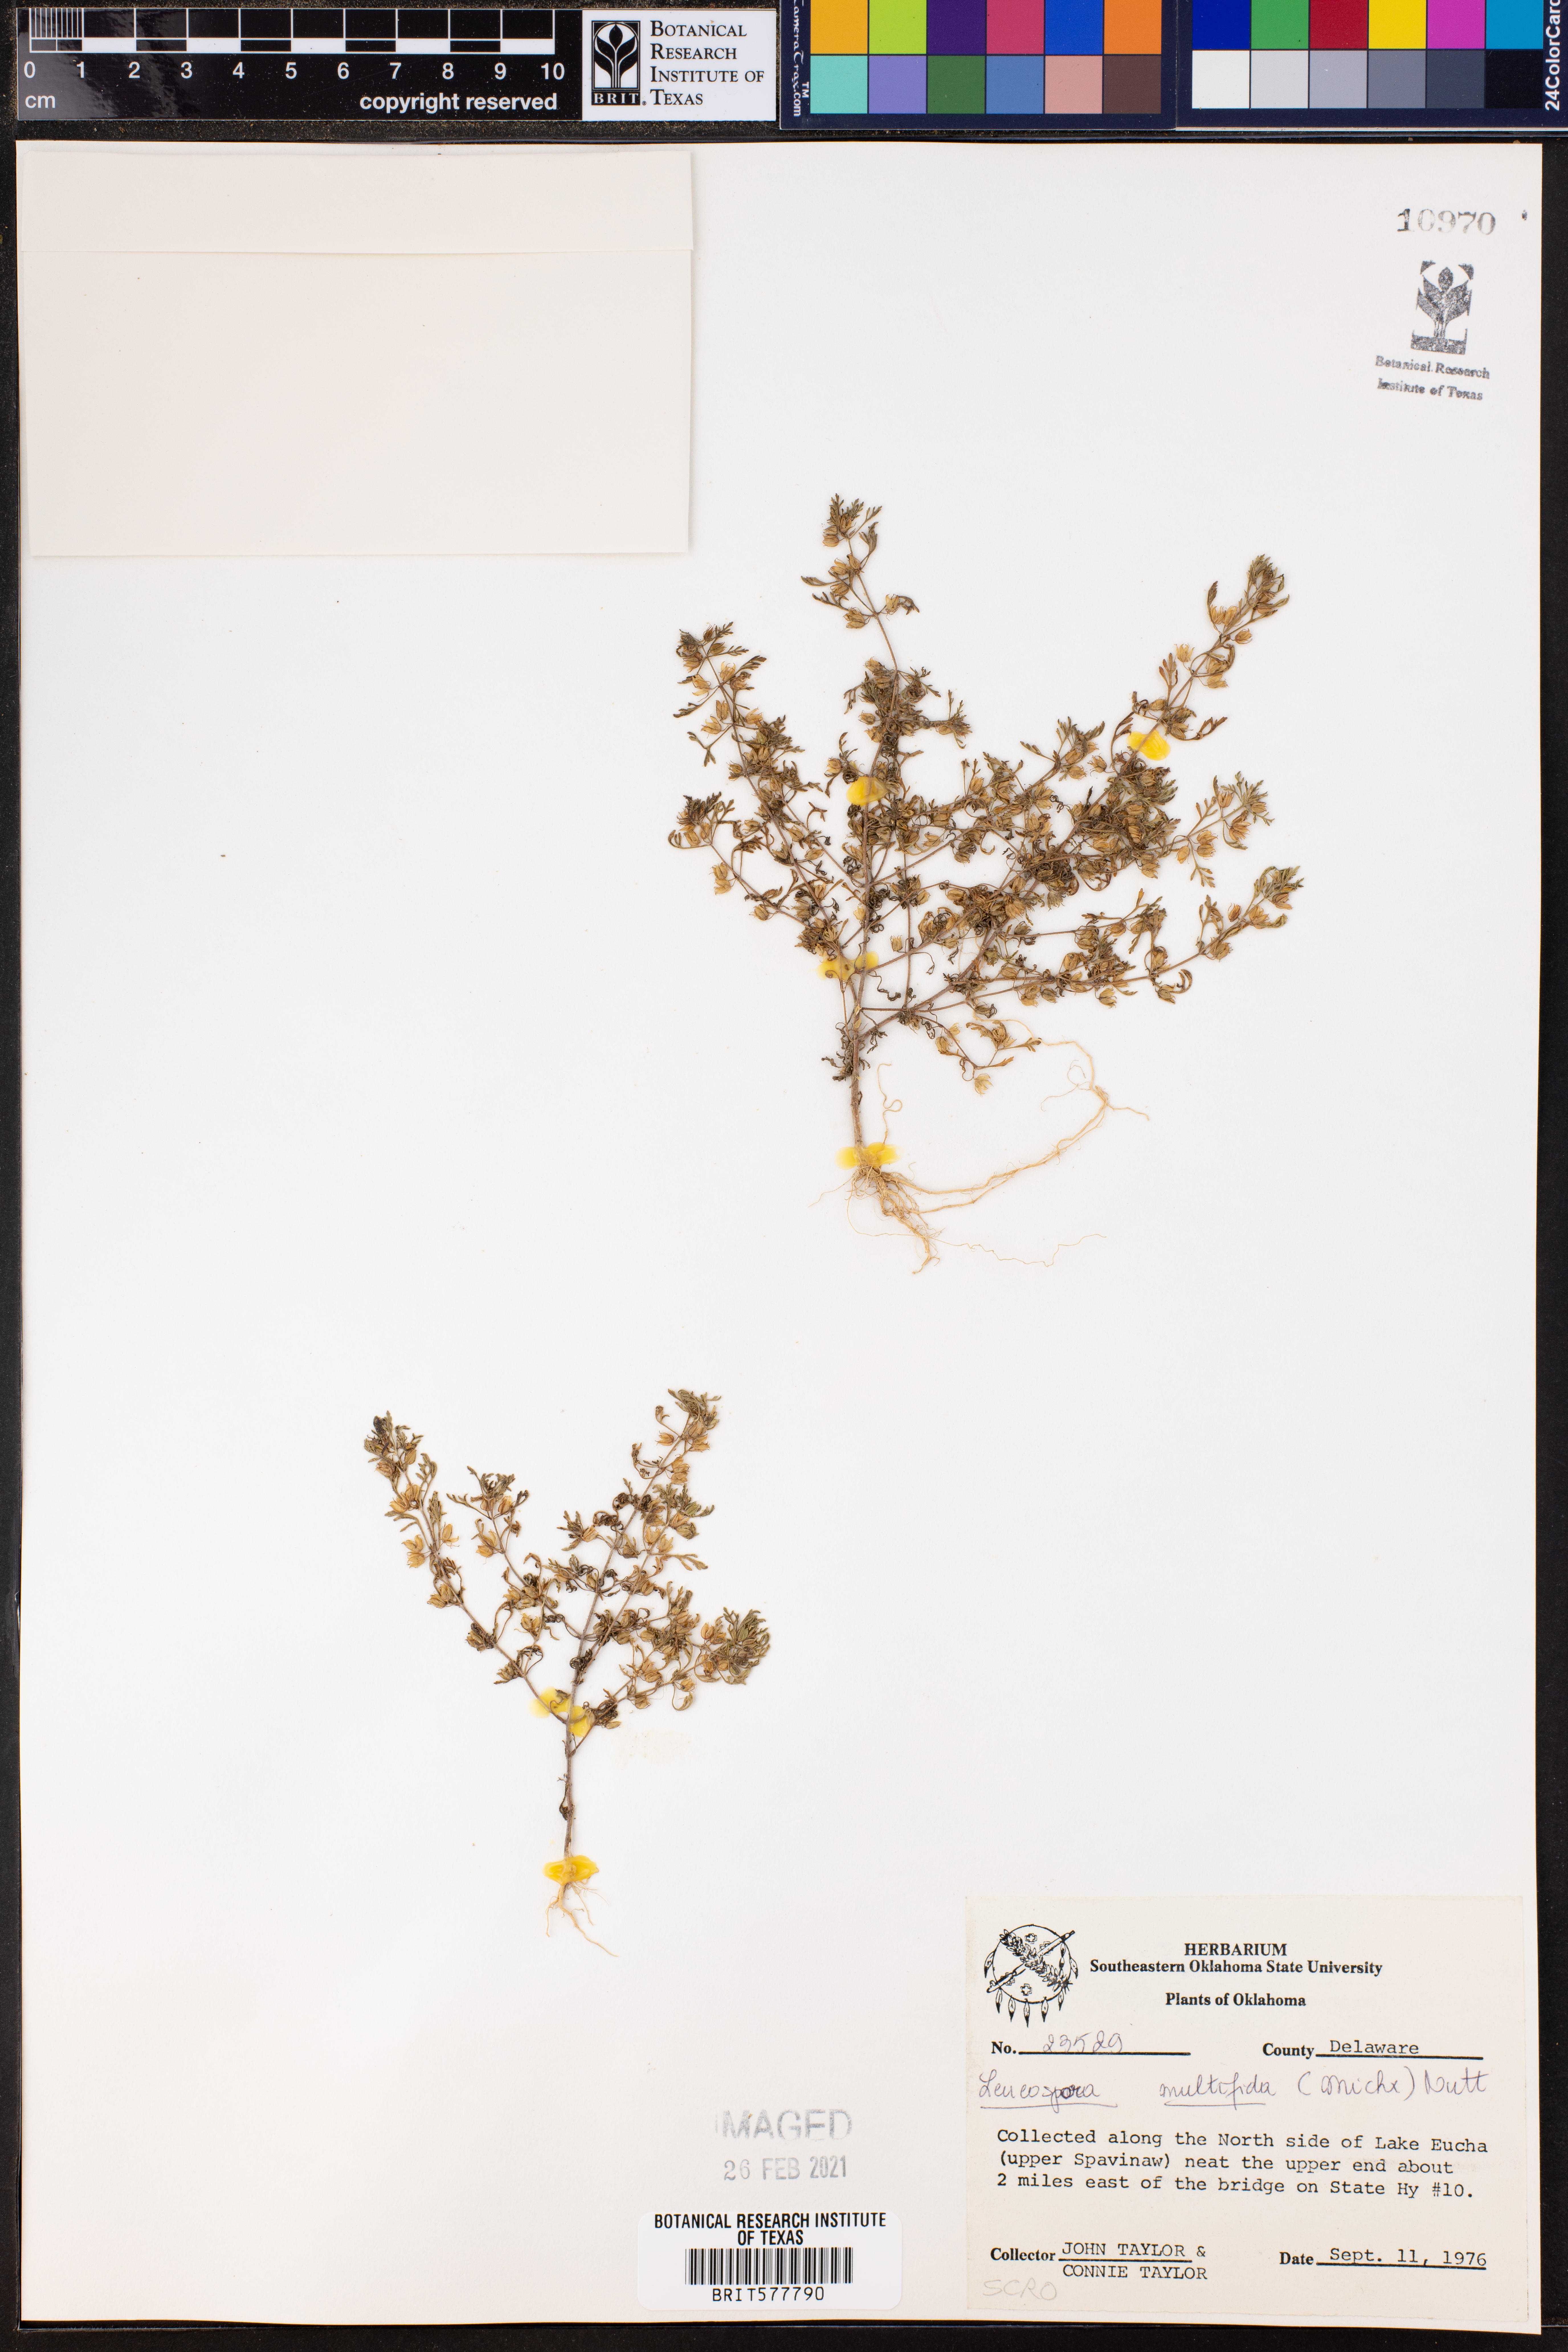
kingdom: Plantae
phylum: Tracheophyta
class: Magnoliopsida
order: Lamiales
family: Plantaginaceae
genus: Leucospora
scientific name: Leucospora multifida
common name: Narrow-leaf paleseed
